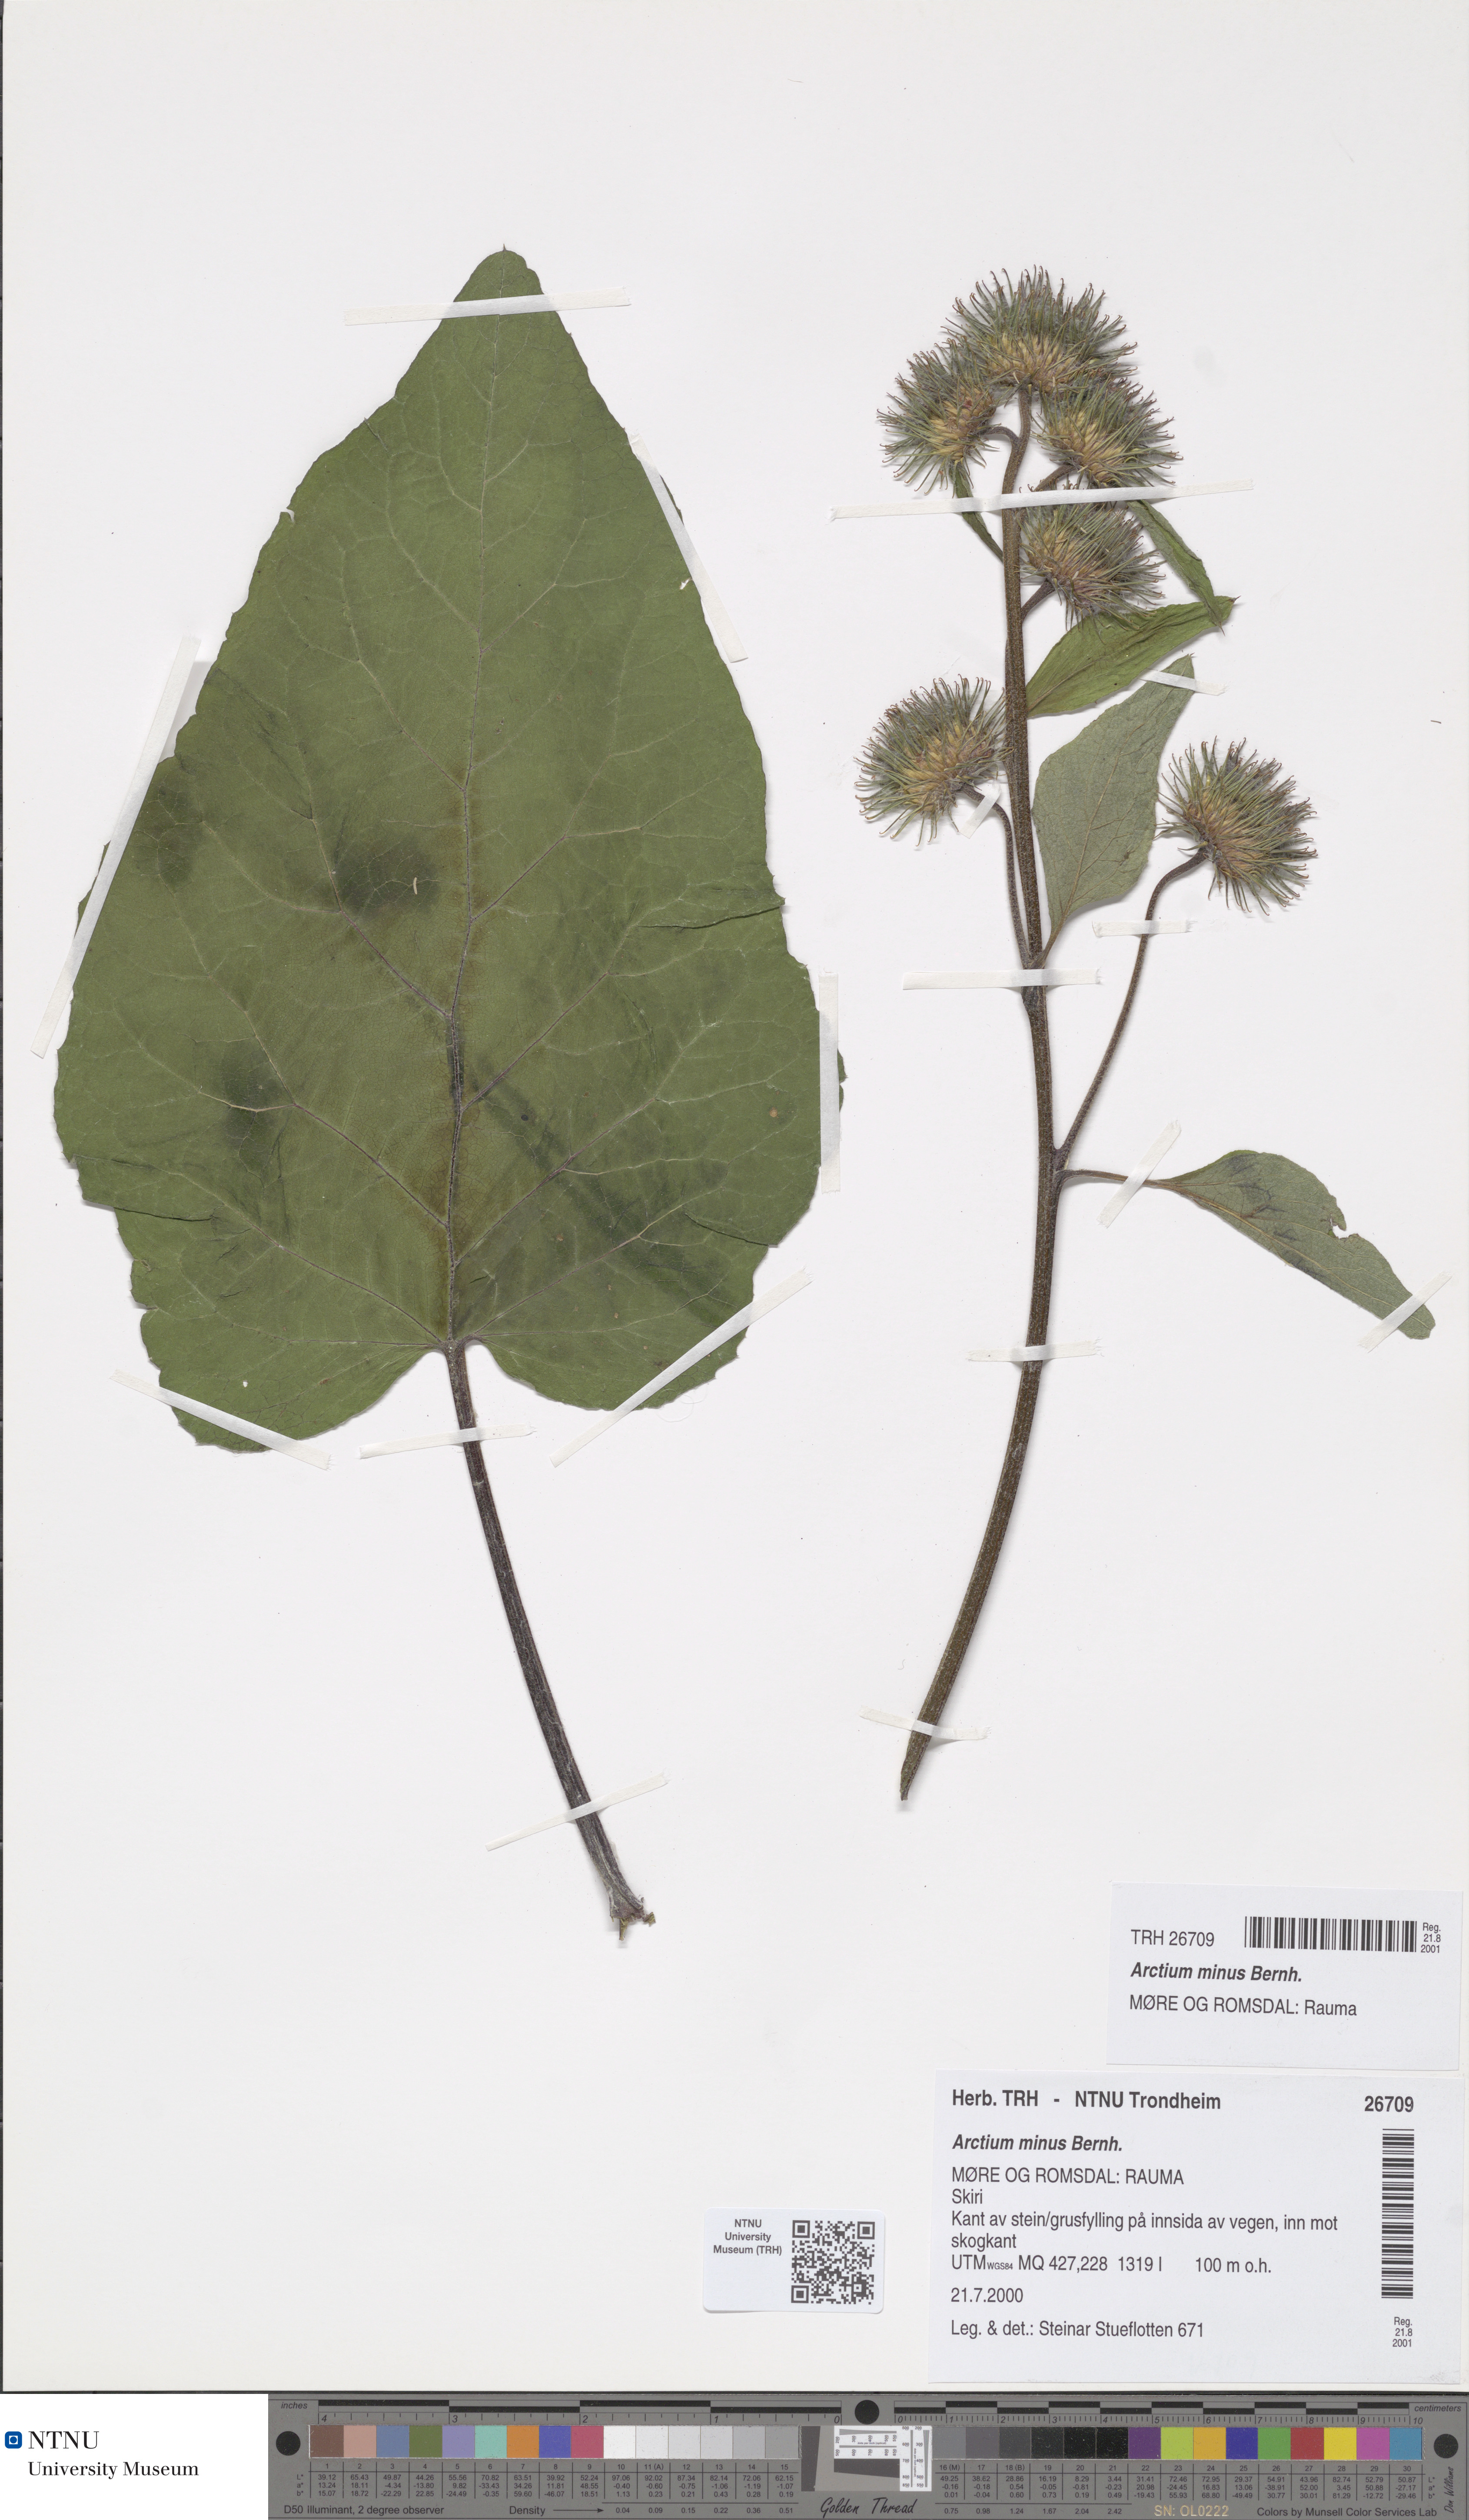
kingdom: Plantae
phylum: Tracheophyta
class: Magnoliopsida
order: Asterales
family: Asteraceae
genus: Arctium
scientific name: Arctium minus
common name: Lesser burdock
